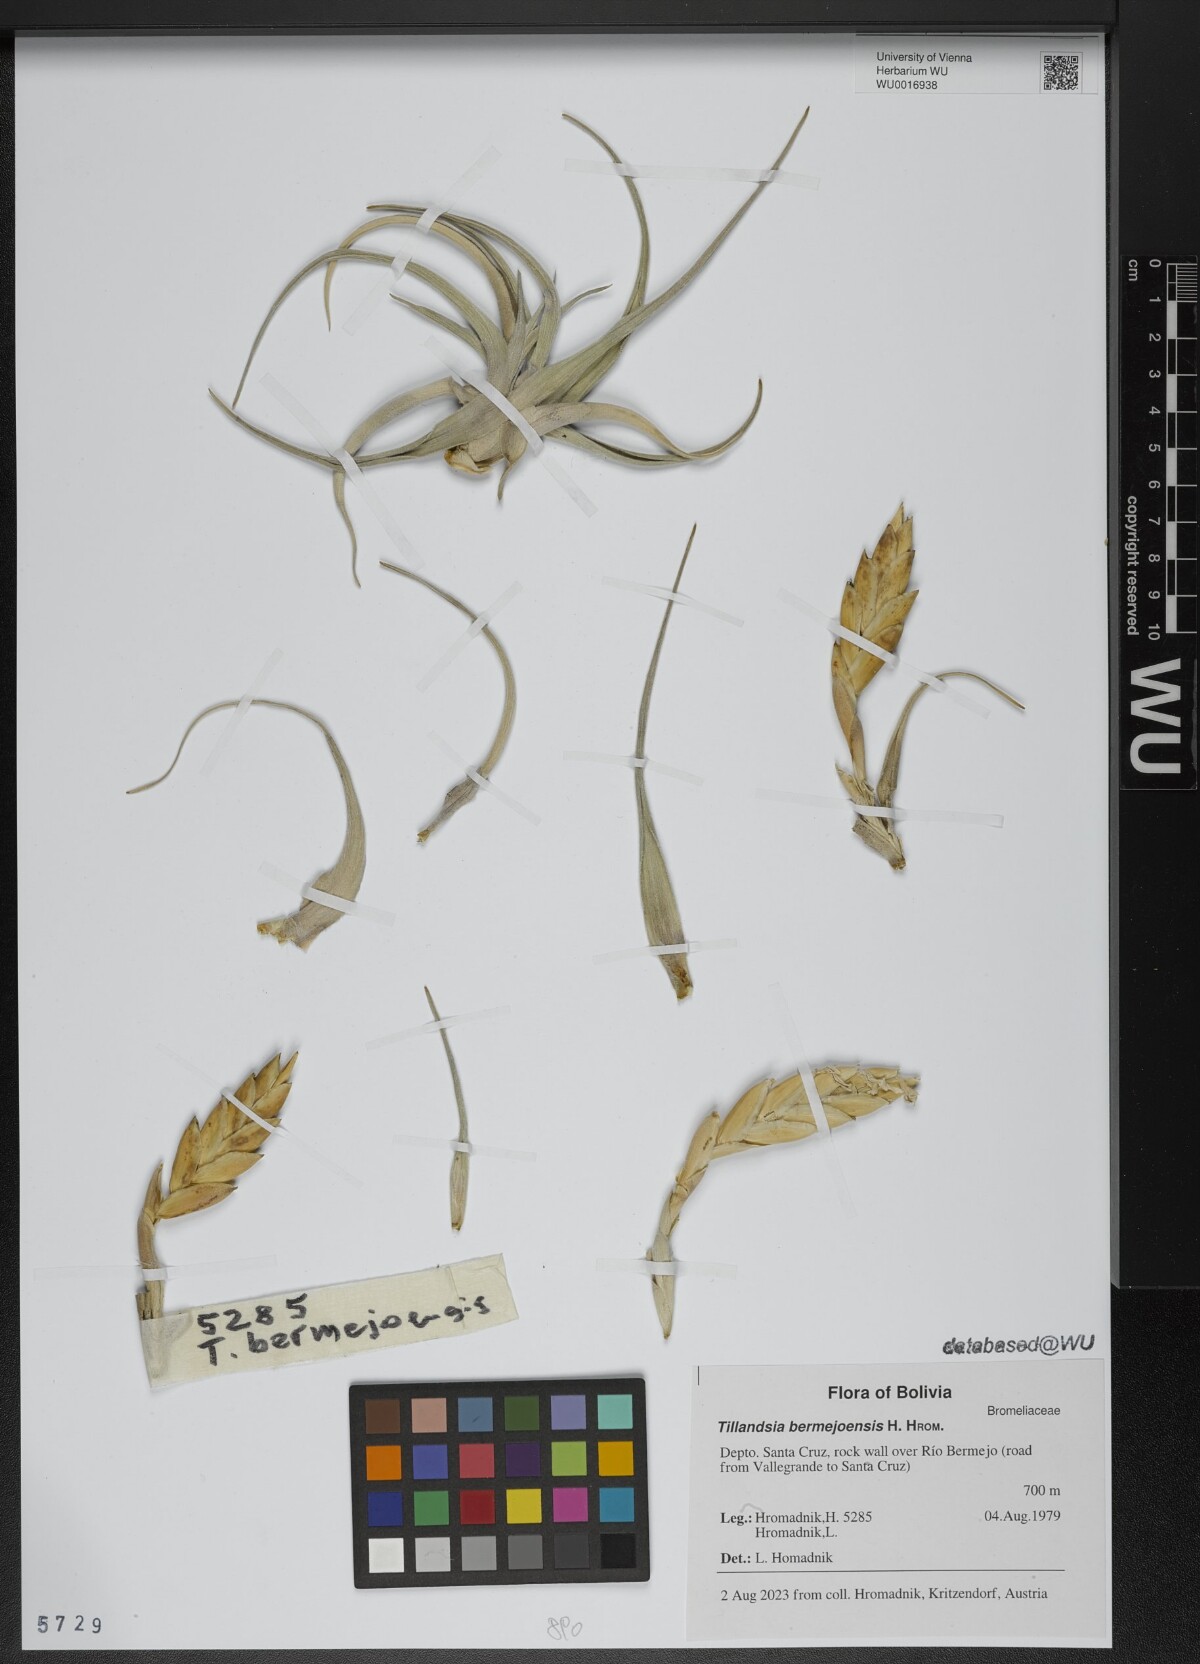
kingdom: Plantae
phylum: Tracheophyta
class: Liliopsida
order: Poales
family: Bromeliaceae
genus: Tillandsia
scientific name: Tillandsia bermejoensis
